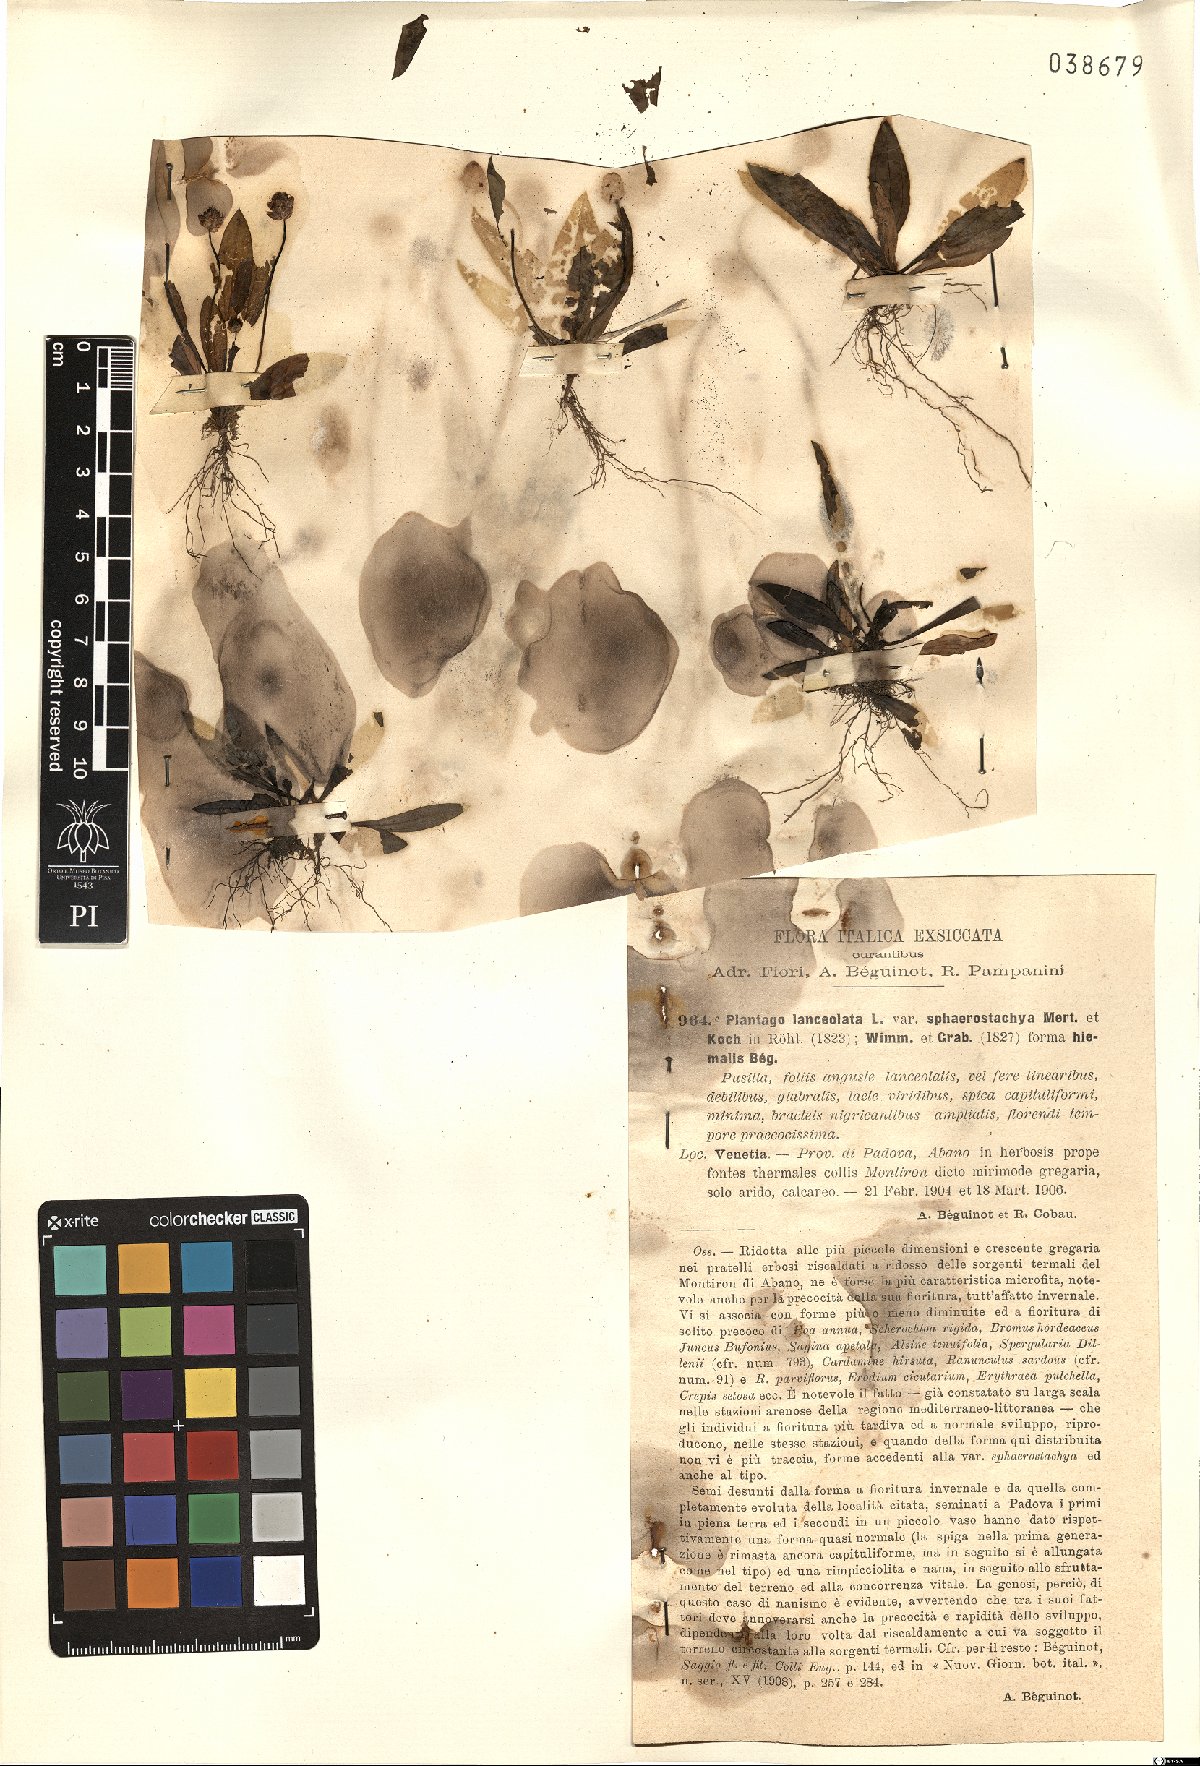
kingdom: Plantae
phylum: Tracheophyta
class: Magnoliopsida
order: Lamiales
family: Plantaginaceae
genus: Plantago
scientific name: Plantago lanceolata
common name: Ribwort plantain
